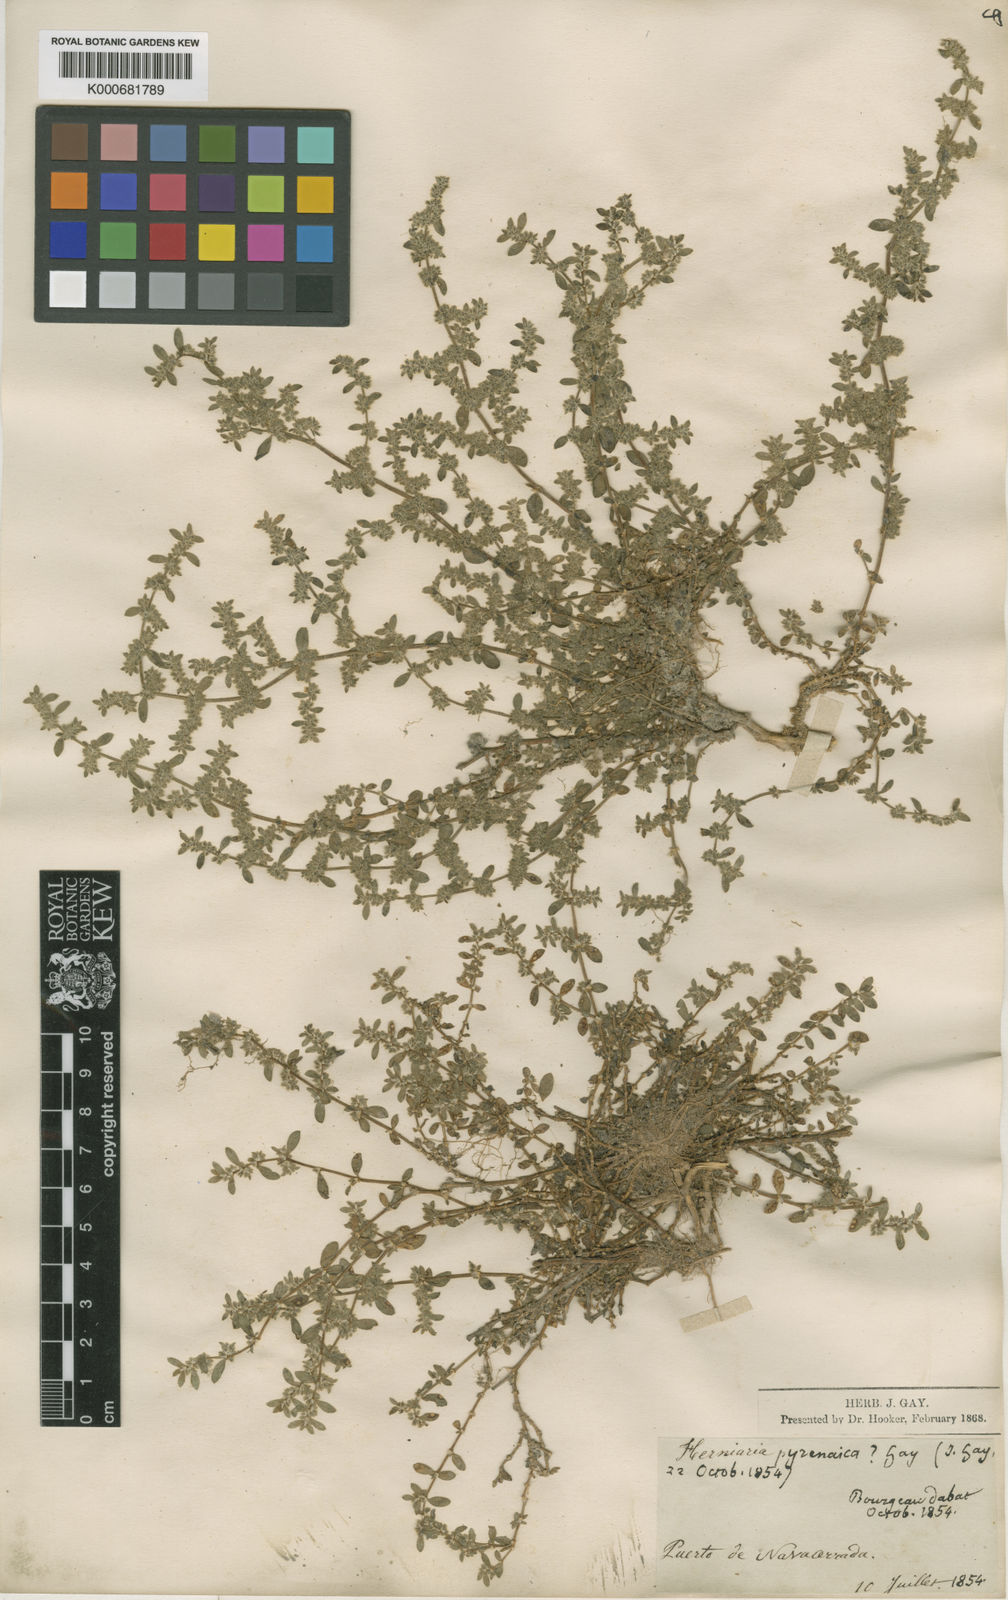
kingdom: Plantae
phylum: Tracheophyta
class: Magnoliopsida
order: Caryophyllales
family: Caryophyllaceae
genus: Herniaria
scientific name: Herniaria latifolia
